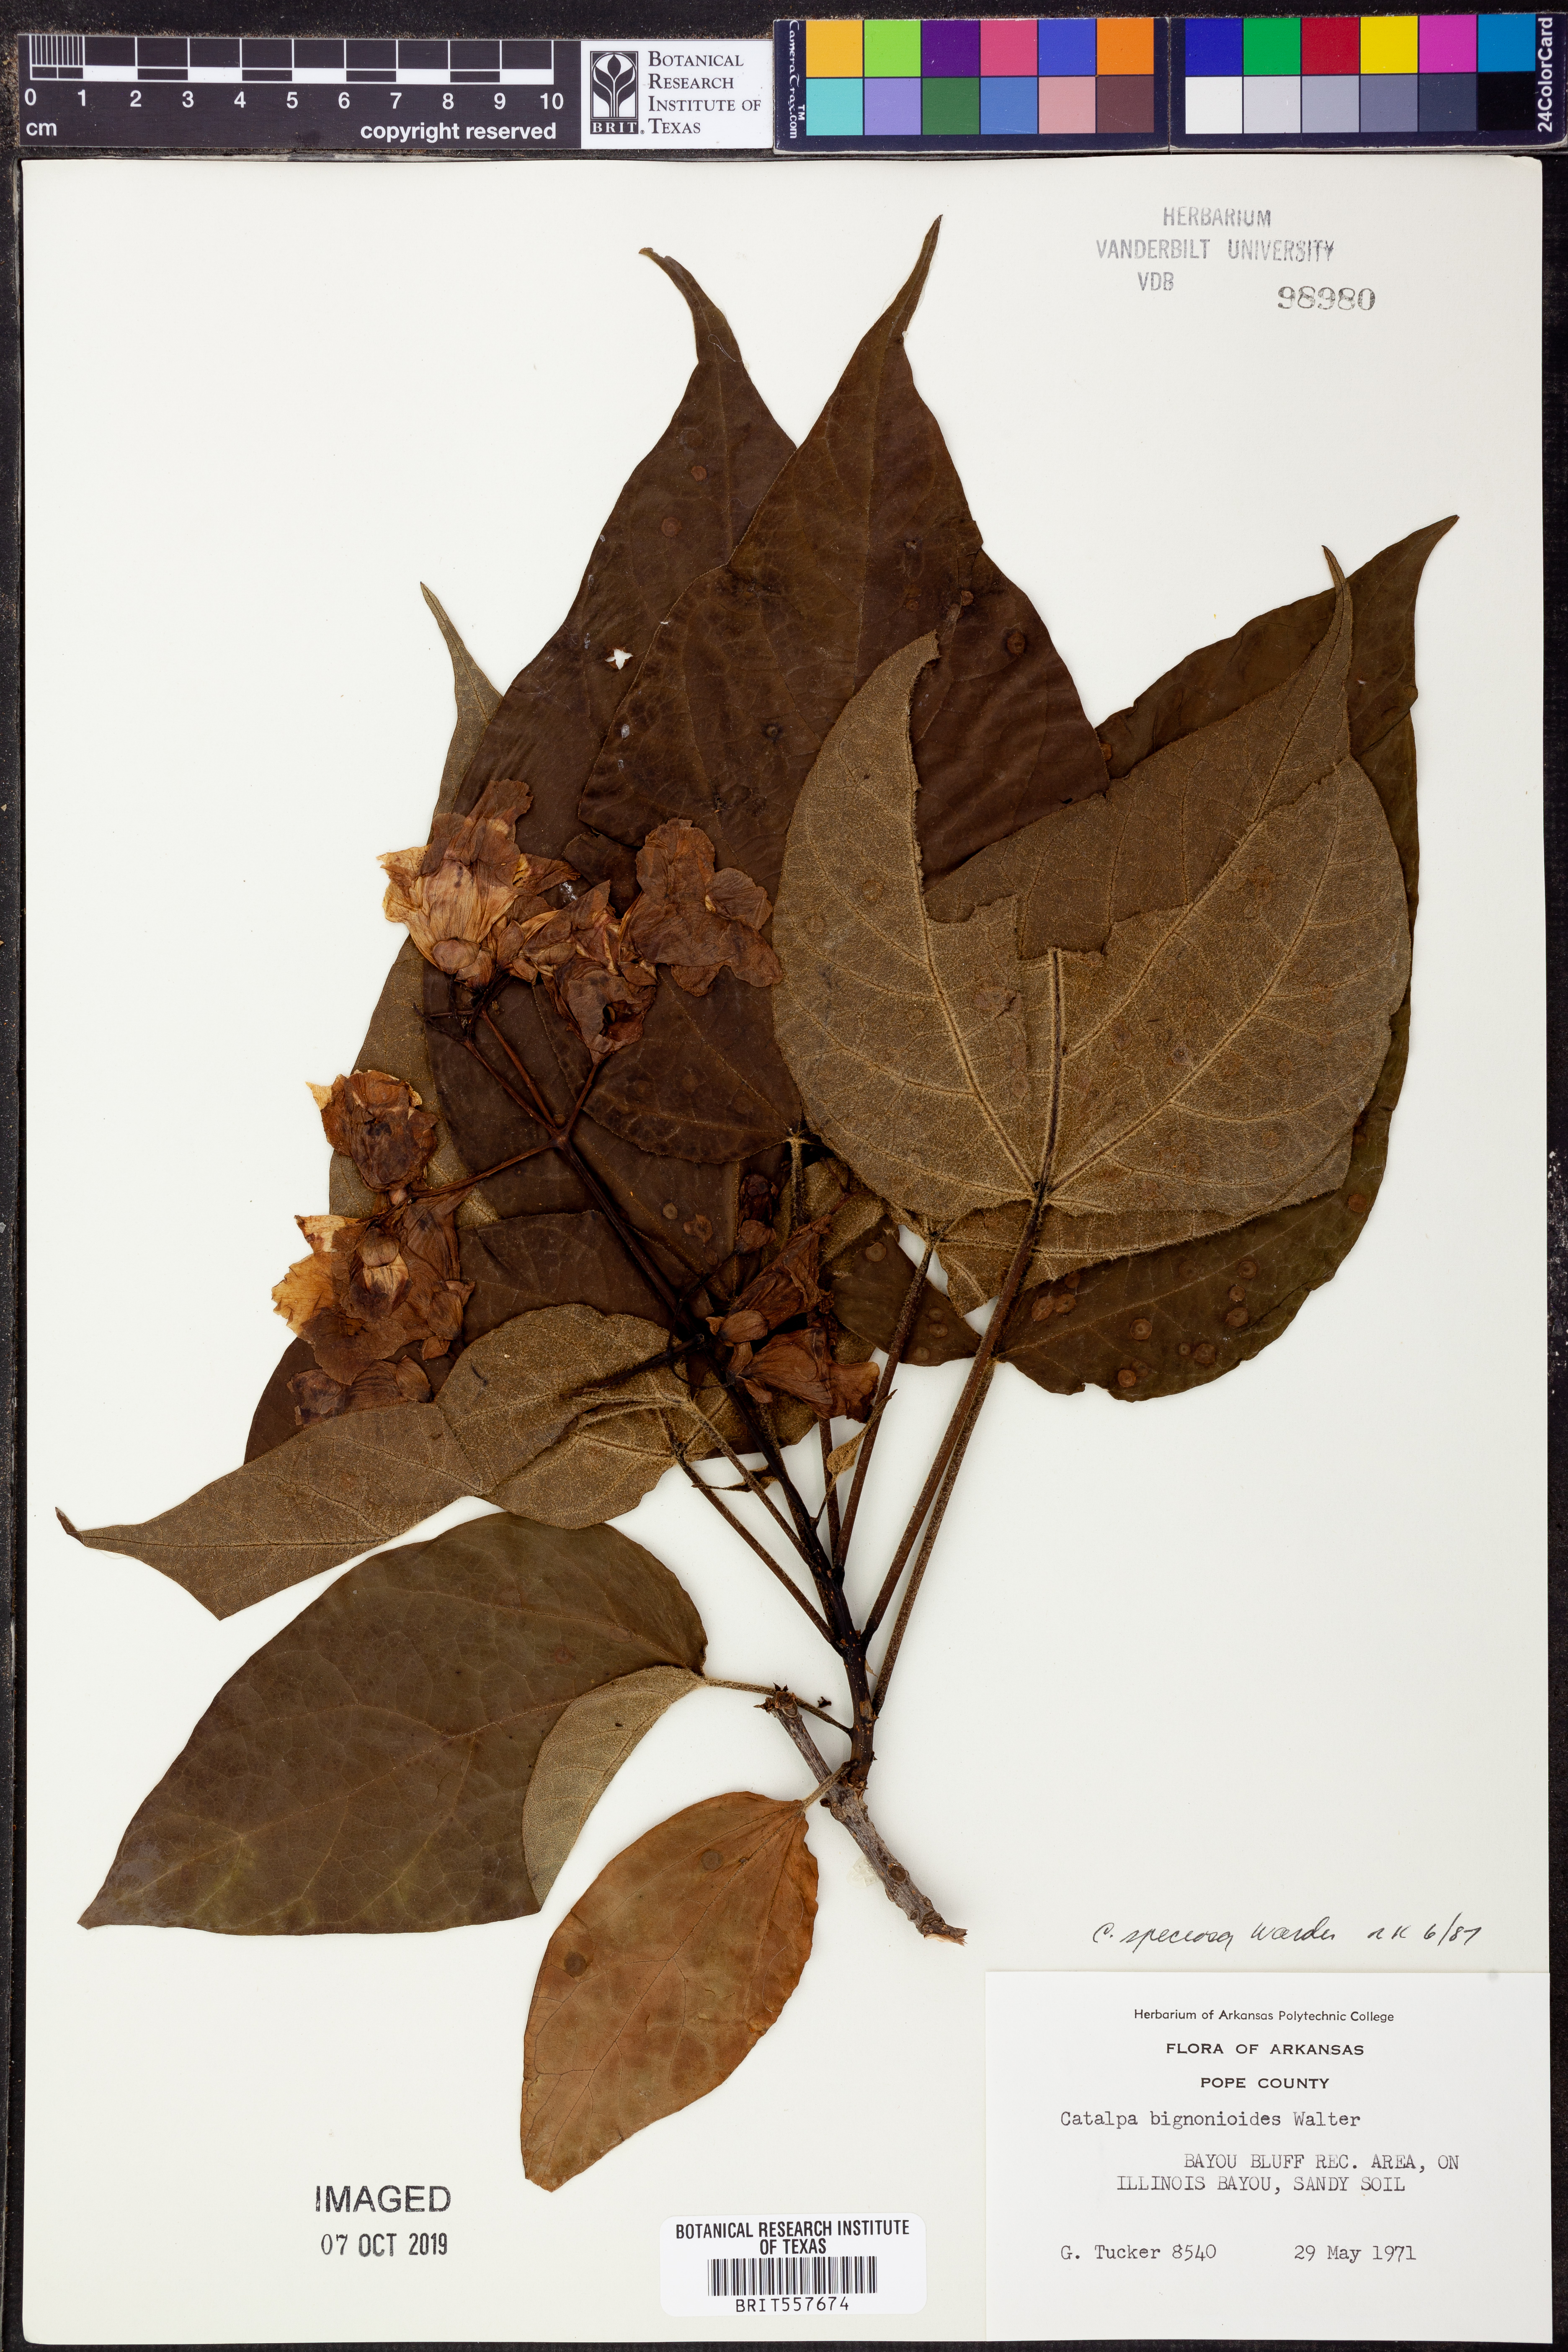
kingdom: Plantae
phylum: Tracheophyta
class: Magnoliopsida
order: Lamiales
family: Bignoniaceae
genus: Catalpa
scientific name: Catalpa speciosa
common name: Northern catalpa
